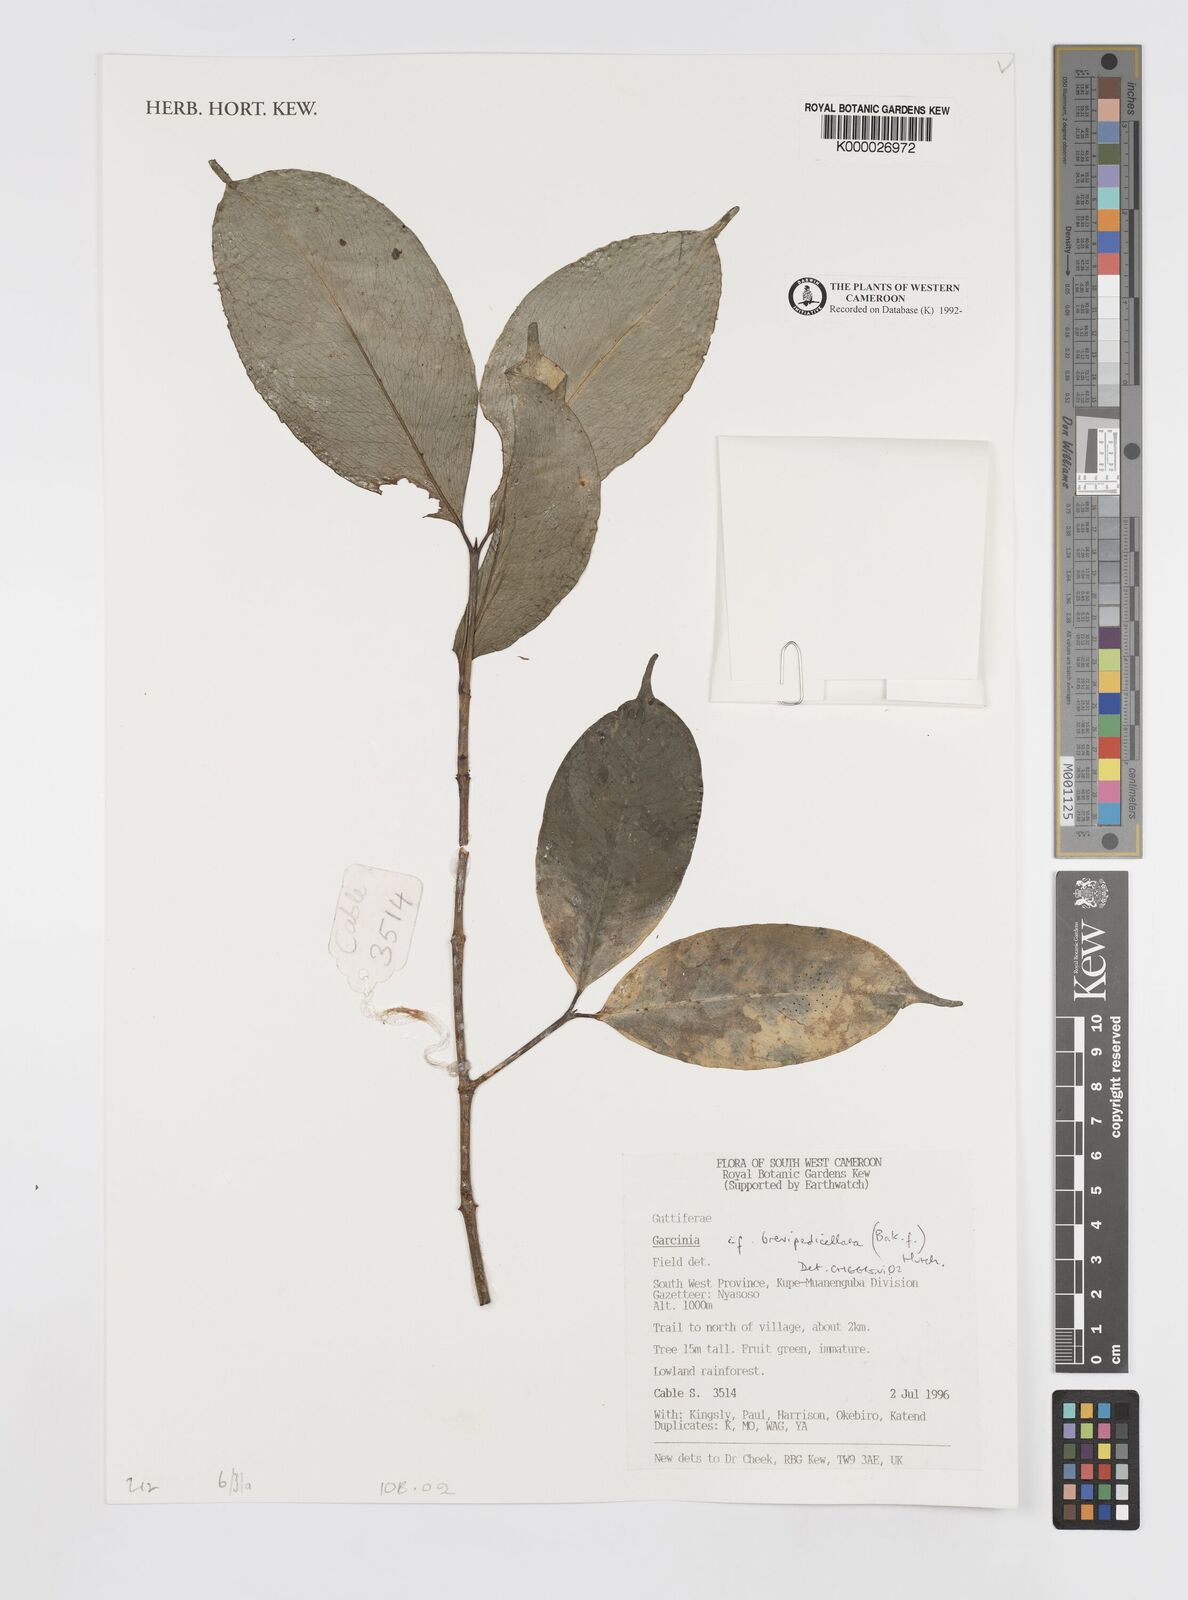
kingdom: Plantae
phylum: Tracheophyta
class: Magnoliopsida
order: Malpighiales
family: Clusiaceae
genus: Garcinia
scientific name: Garcinia brevipedicellata
